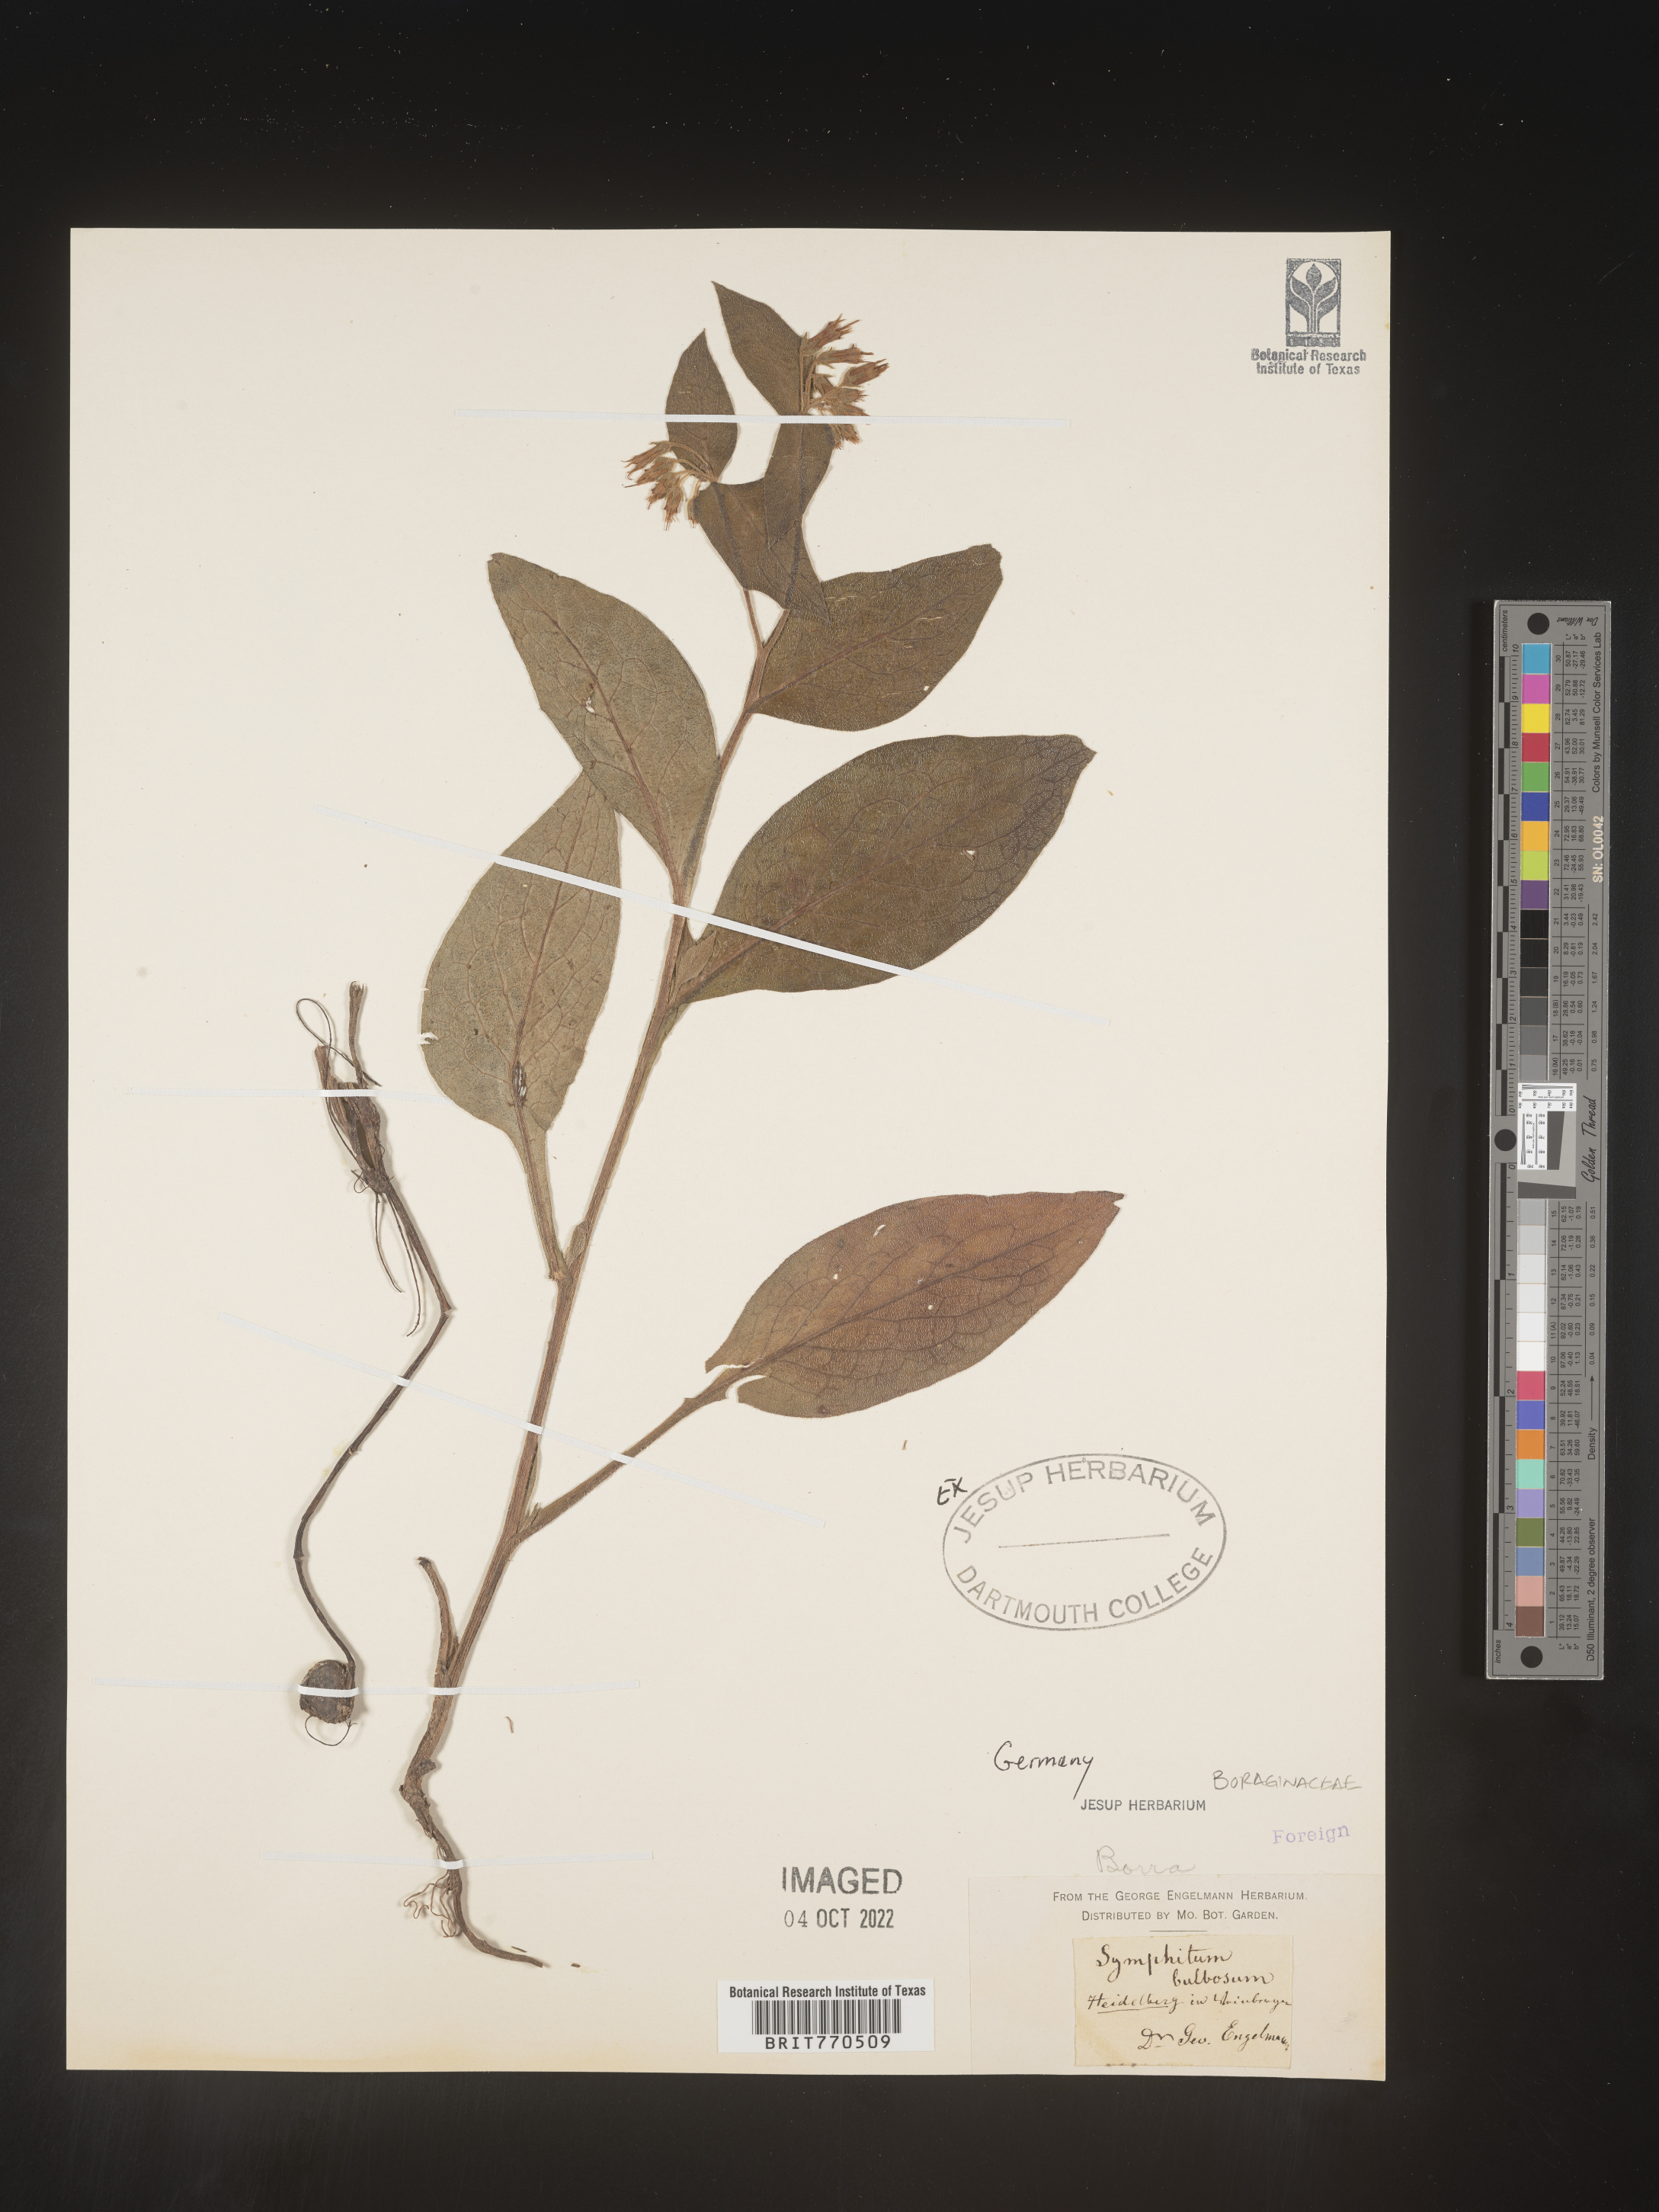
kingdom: Plantae
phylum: Tracheophyta
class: Magnoliopsida
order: Boraginales
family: Boraginaceae
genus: Symphytum
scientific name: Symphytum
